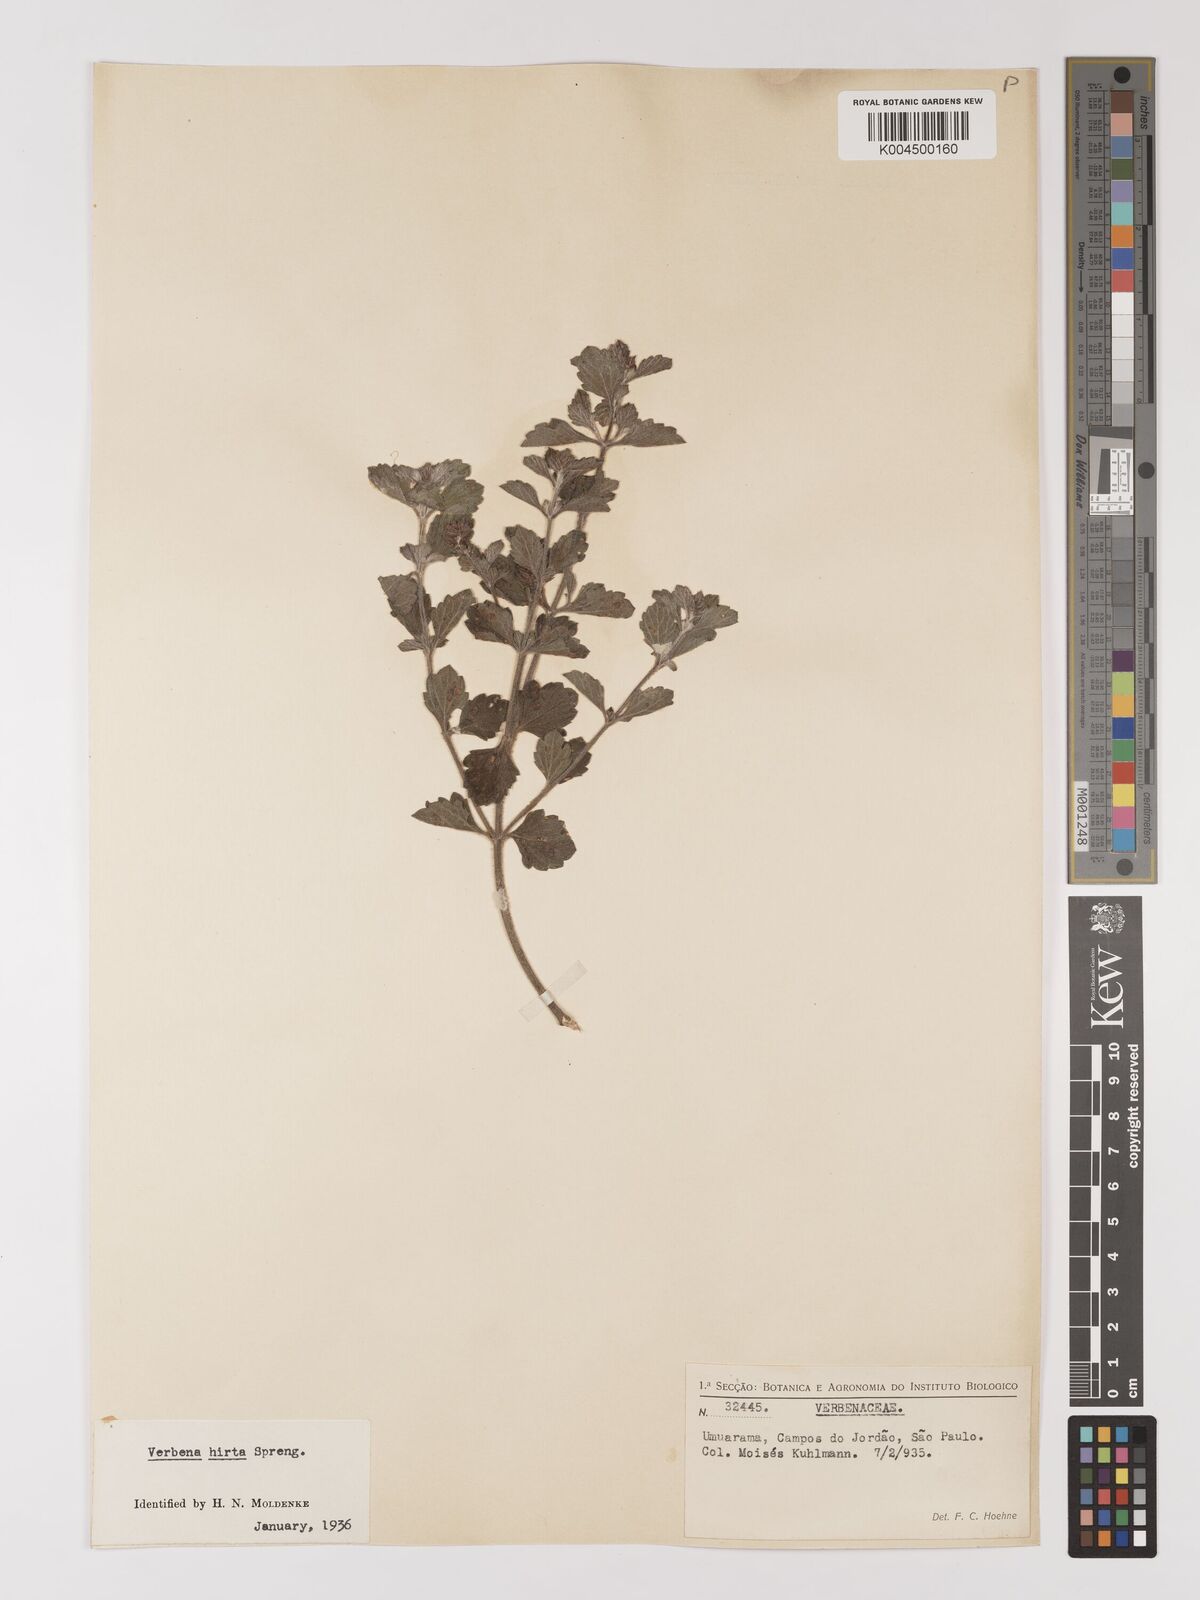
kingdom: Plantae
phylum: Tracheophyta
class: Magnoliopsida
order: Lamiales
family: Verbenaceae
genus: Verbena
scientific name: Verbena hirta
